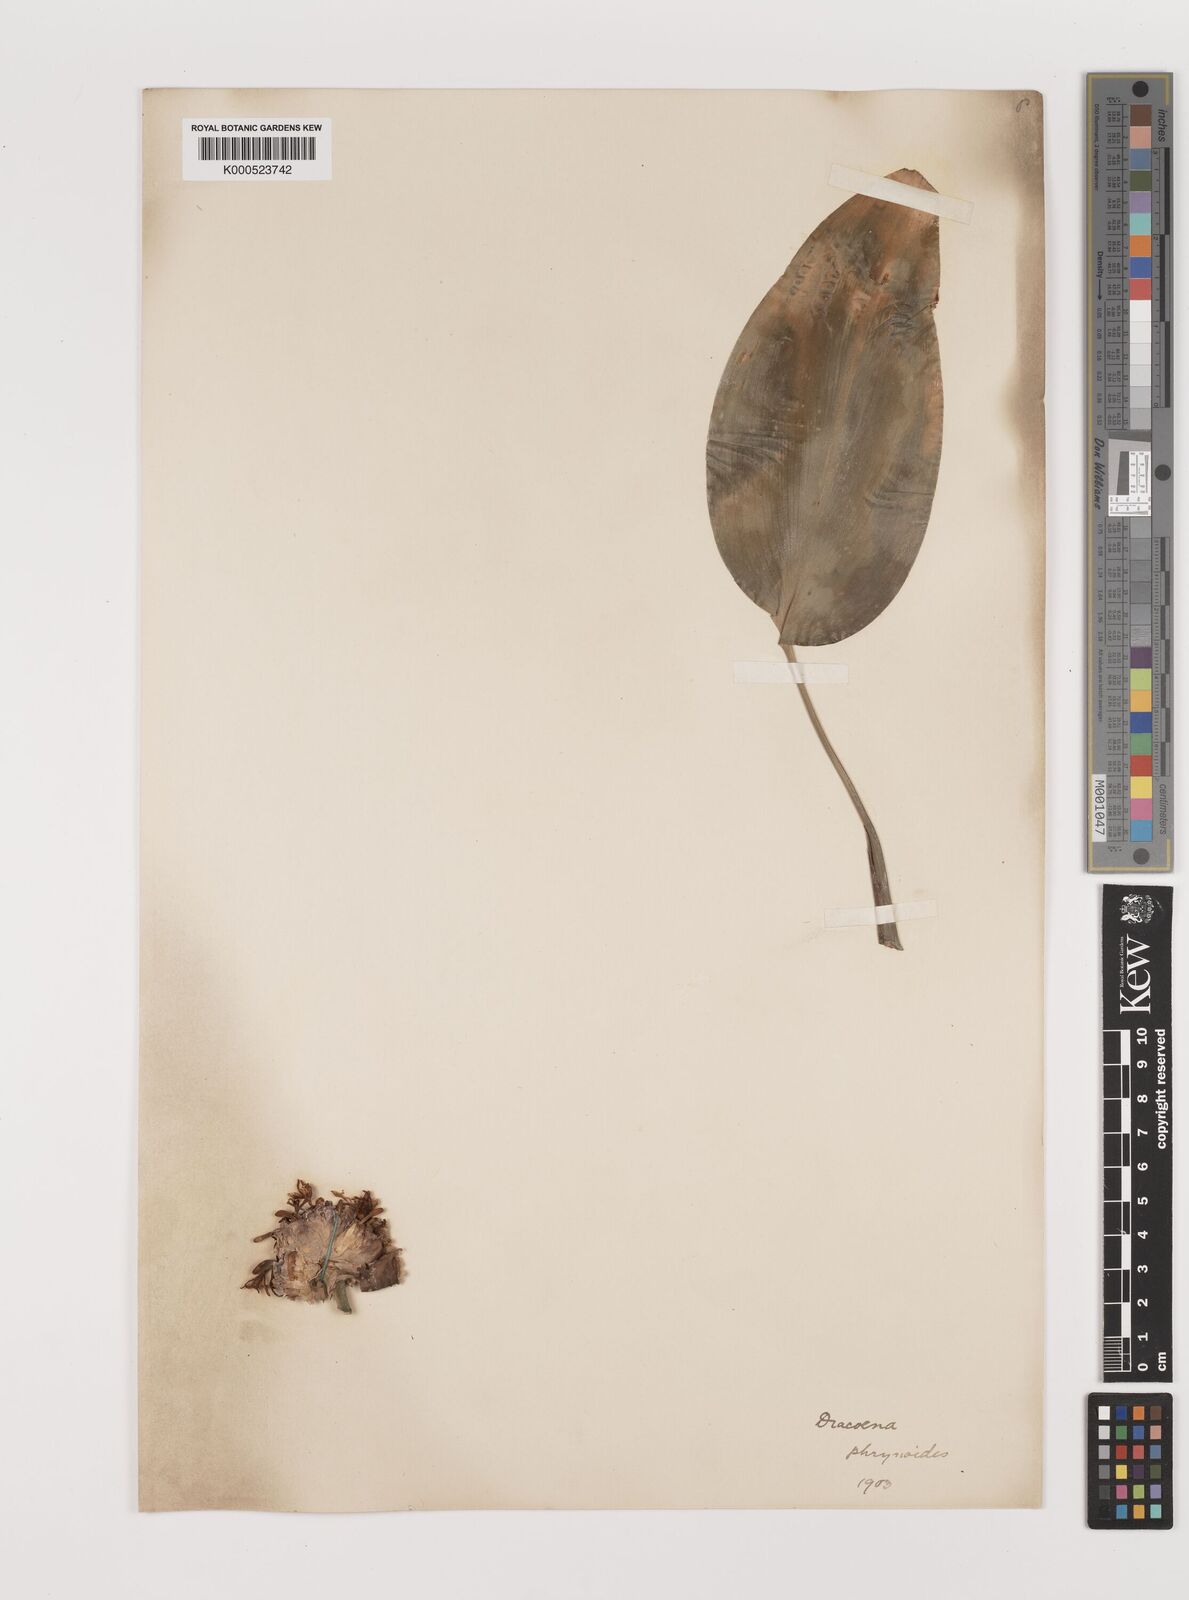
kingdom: Plantae
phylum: Tracheophyta
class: Liliopsida
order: Asparagales
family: Asparagaceae
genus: Dracaena
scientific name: Dracaena phrynioides
